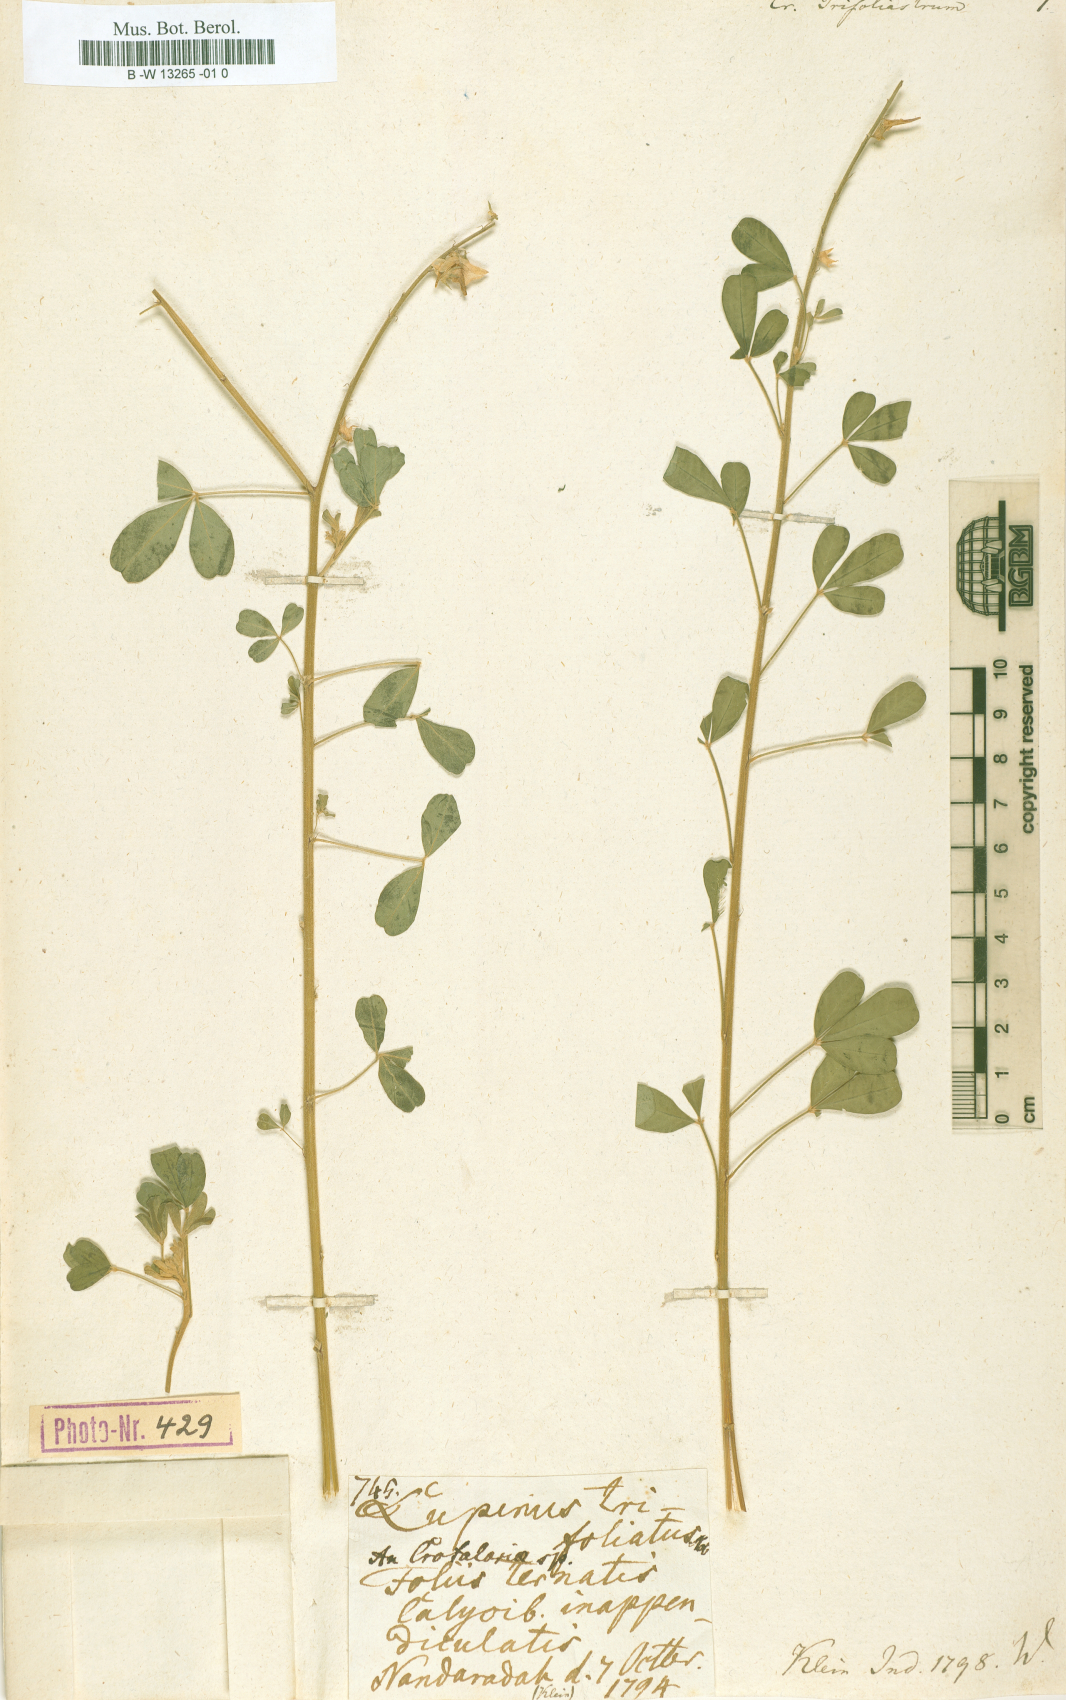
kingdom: Plantae
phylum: Tracheophyta
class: Magnoliopsida
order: Fabales
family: Fabaceae
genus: Crotalaria
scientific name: Crotalaria trifoliastrum
